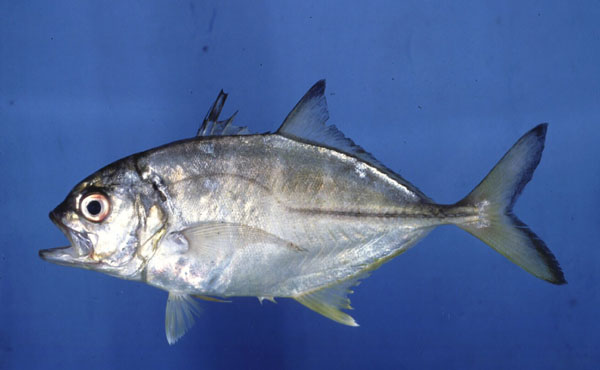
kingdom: Animalia
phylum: Chordata
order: Perciformes
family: Carangidae
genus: Caranx
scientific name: Caranx sexfasciatus
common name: Bigeye trevally
